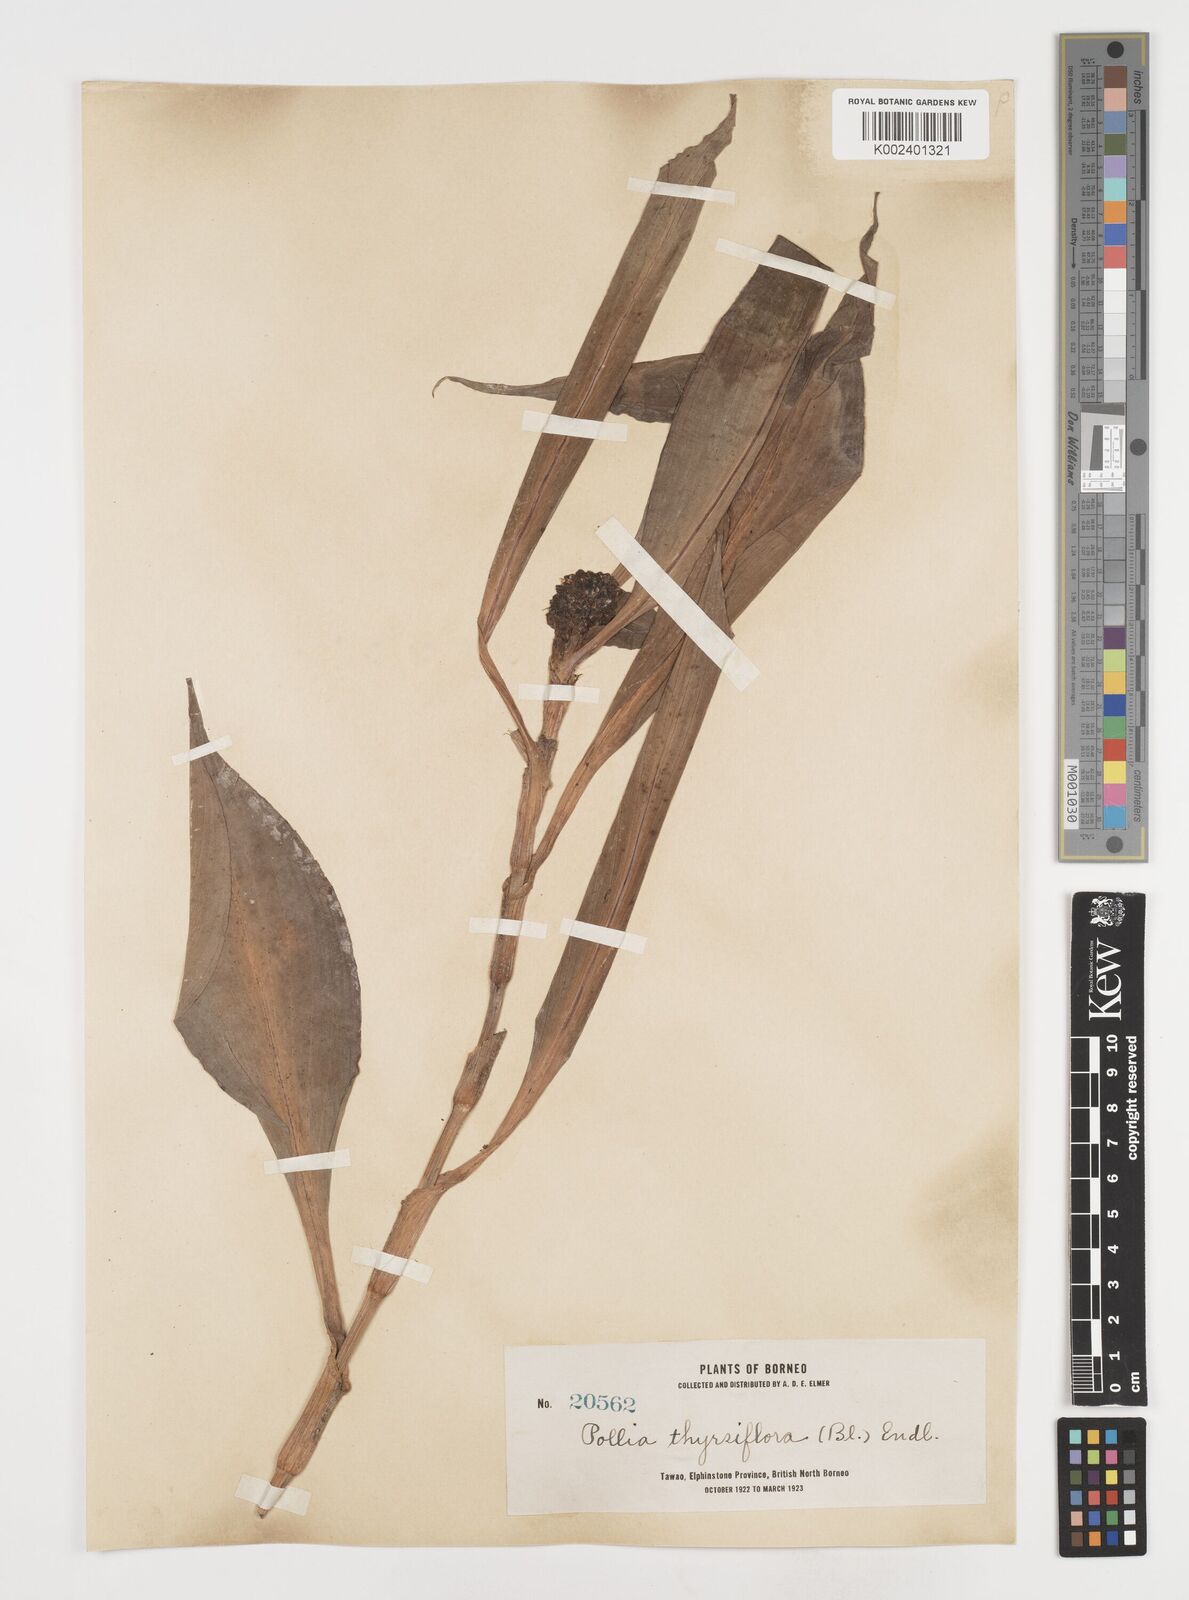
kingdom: Plantae
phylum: Tracheophyta
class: Liliopsida
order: Commelinales
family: Commelinaceae
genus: Pollia
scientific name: Pollia thyrsiflora
